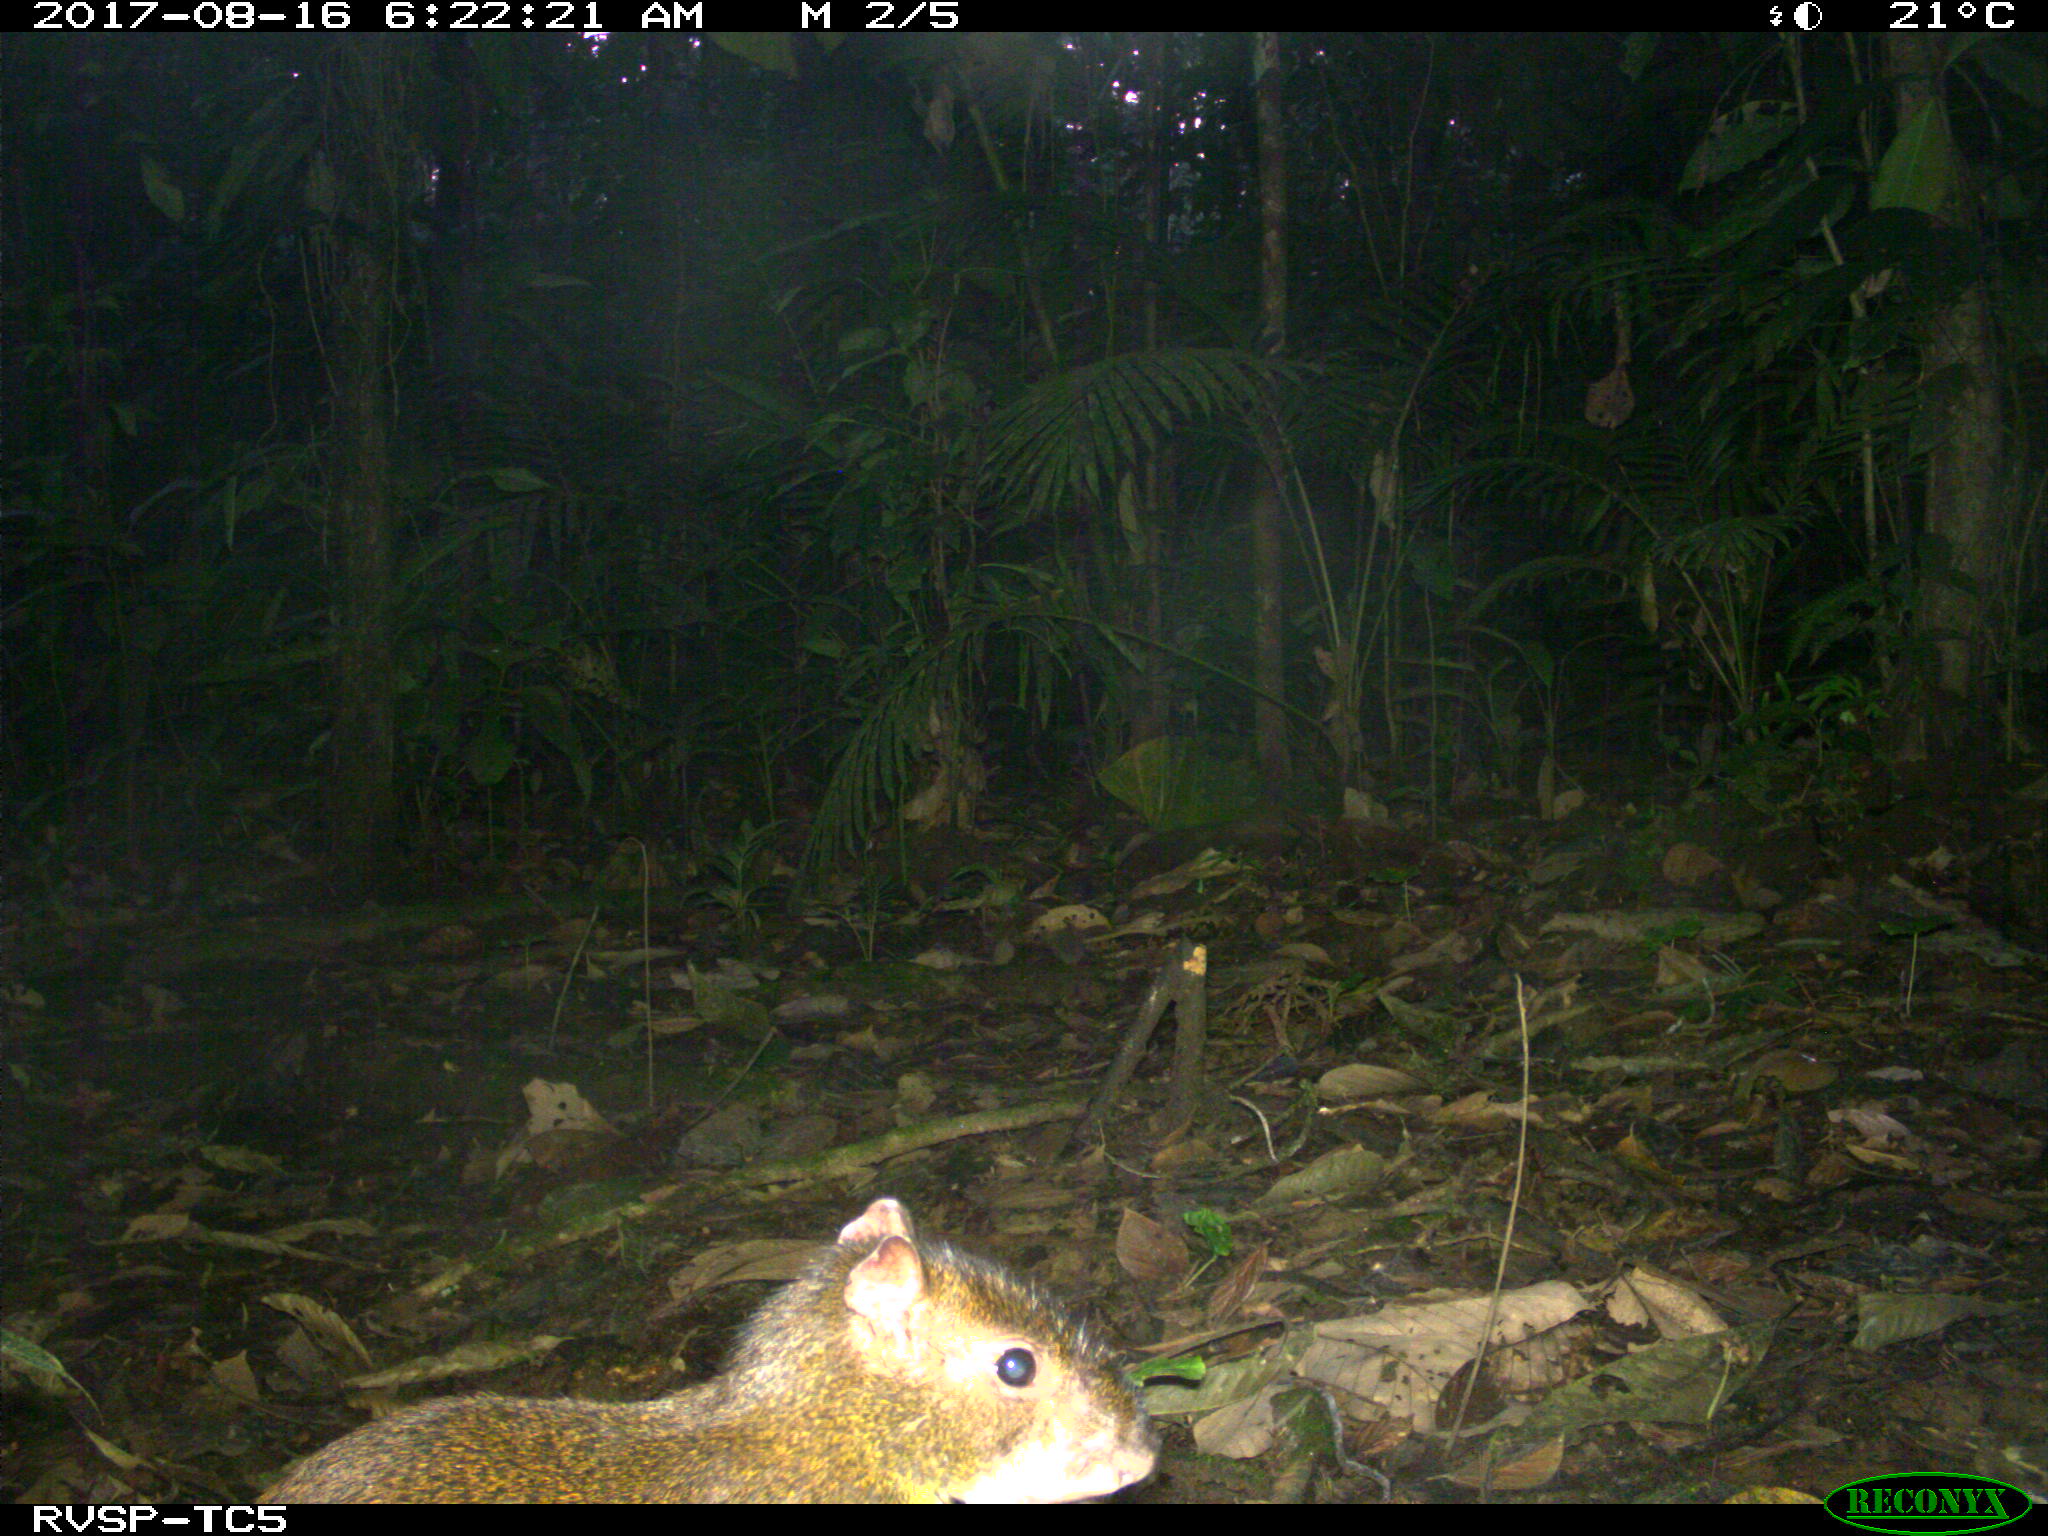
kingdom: Animalia
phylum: Chordata
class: Mammalia
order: Rodentia
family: Dasyproctidae
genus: Dasyprocta
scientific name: Dasyprocta punctata
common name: Central american agouti
